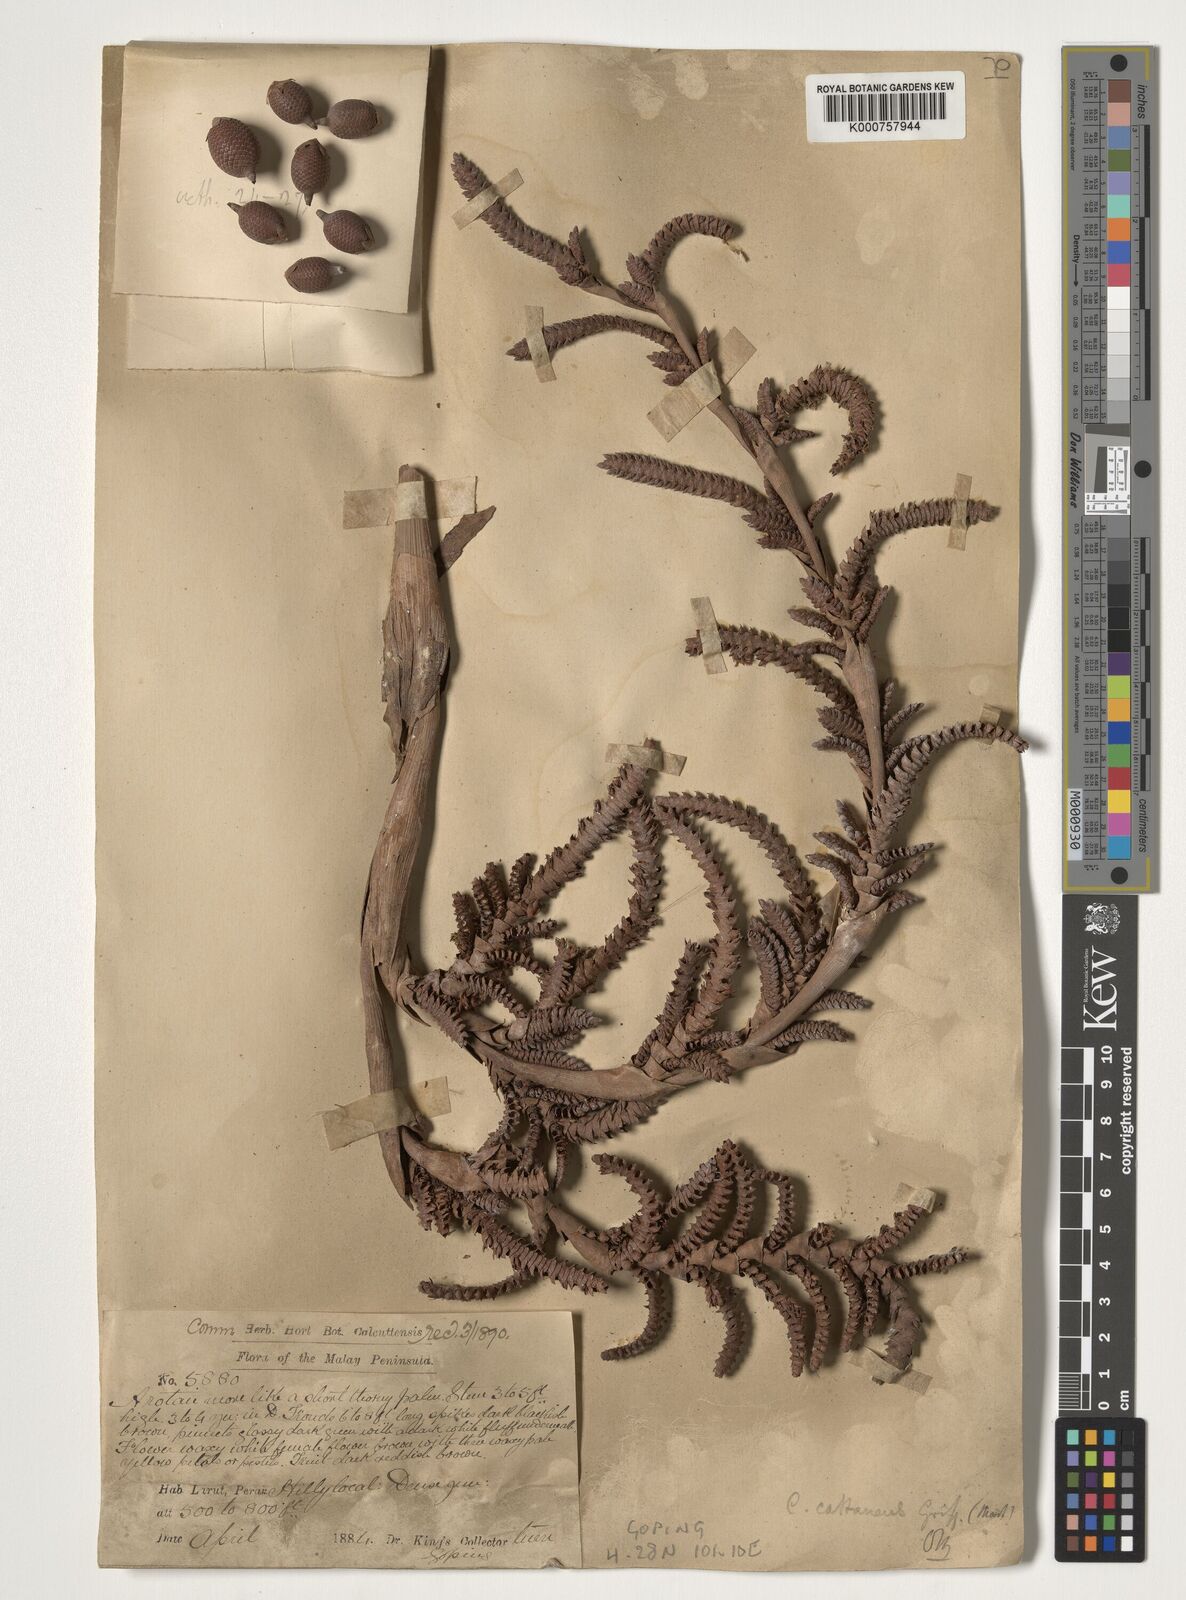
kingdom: Plantae
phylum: Tracheophyta
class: Liliopsida
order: Arecales
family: Arecaceae
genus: Calamus
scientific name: Calamus castaneus
